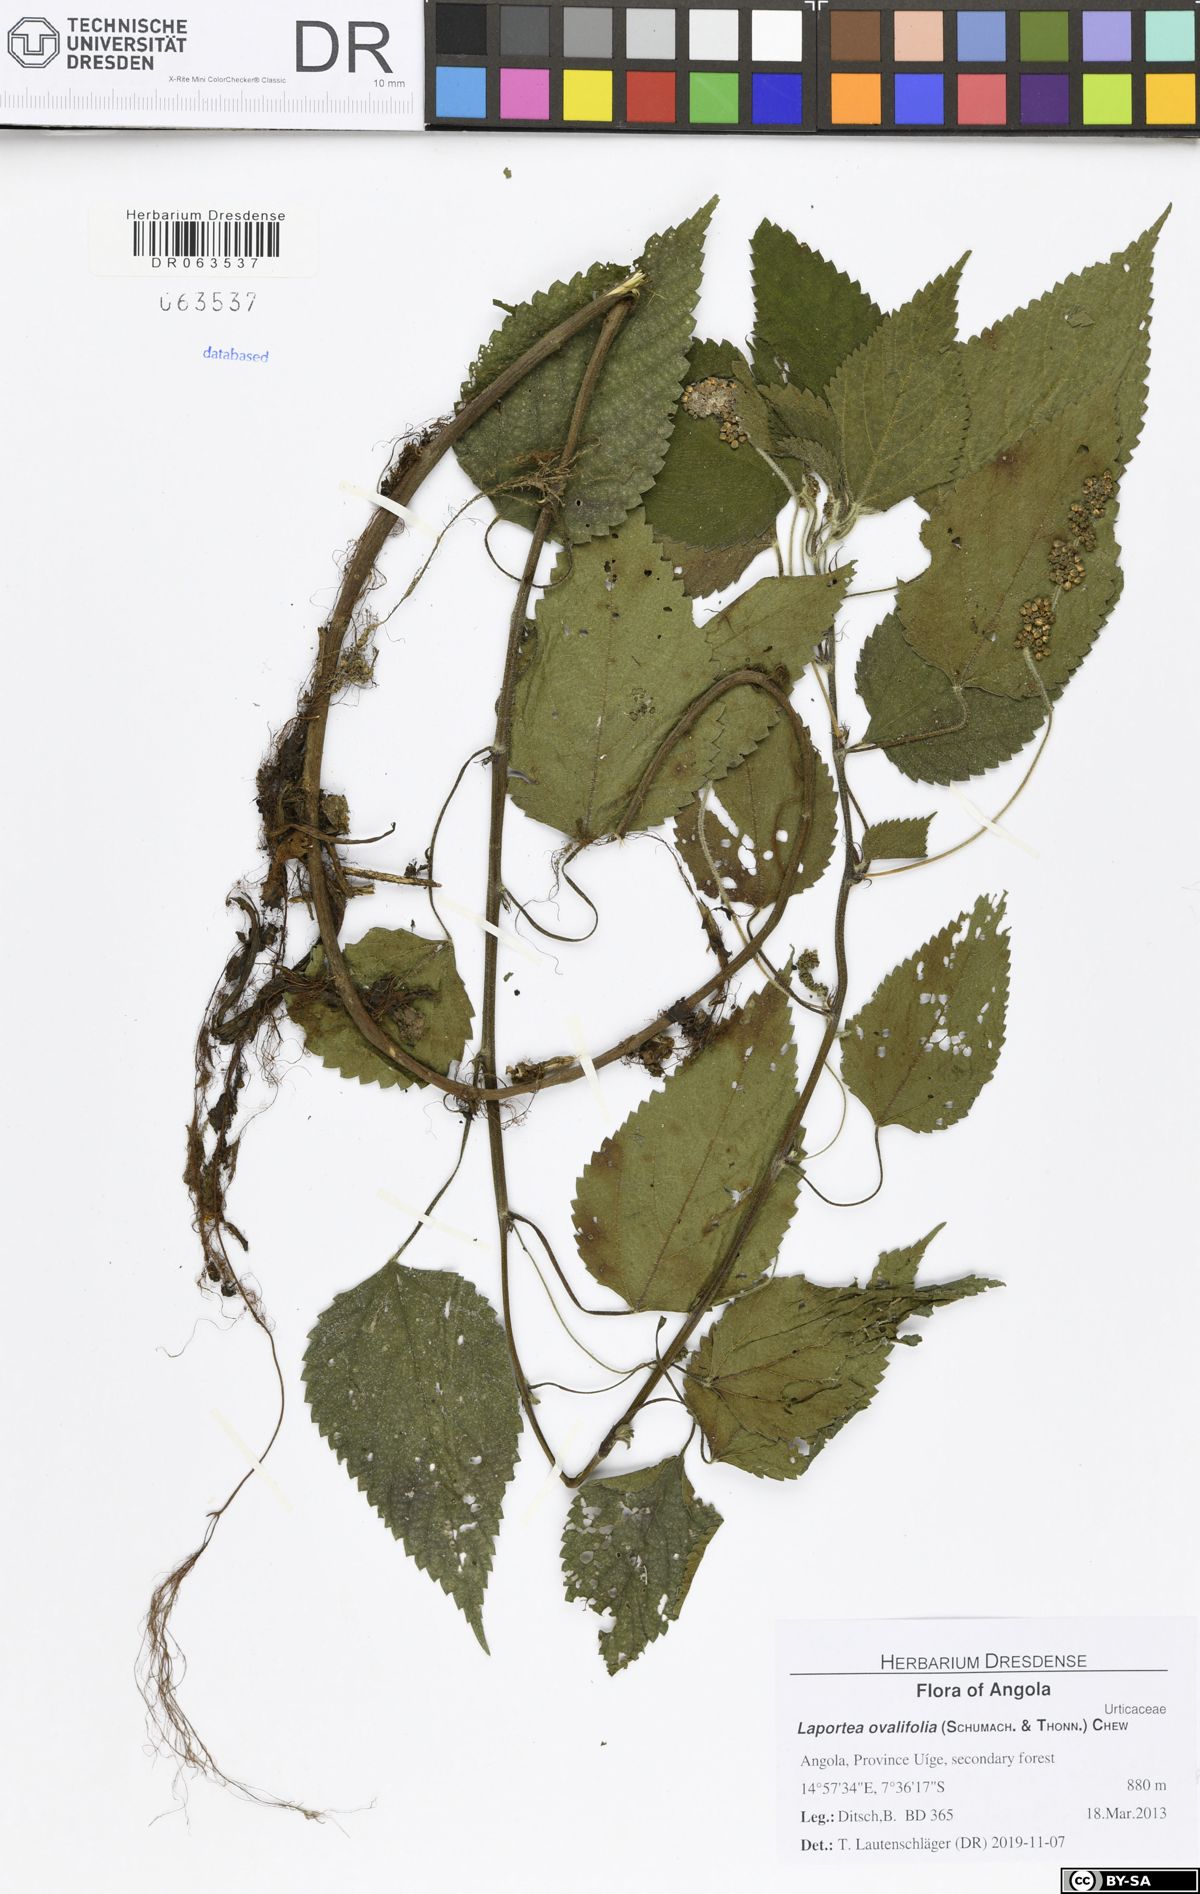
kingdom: Plantae
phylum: Tracheophyta
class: Magnoliopsida
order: Rosales
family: Urticaceae
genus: Laportea
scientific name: Laportea ovalifolia
